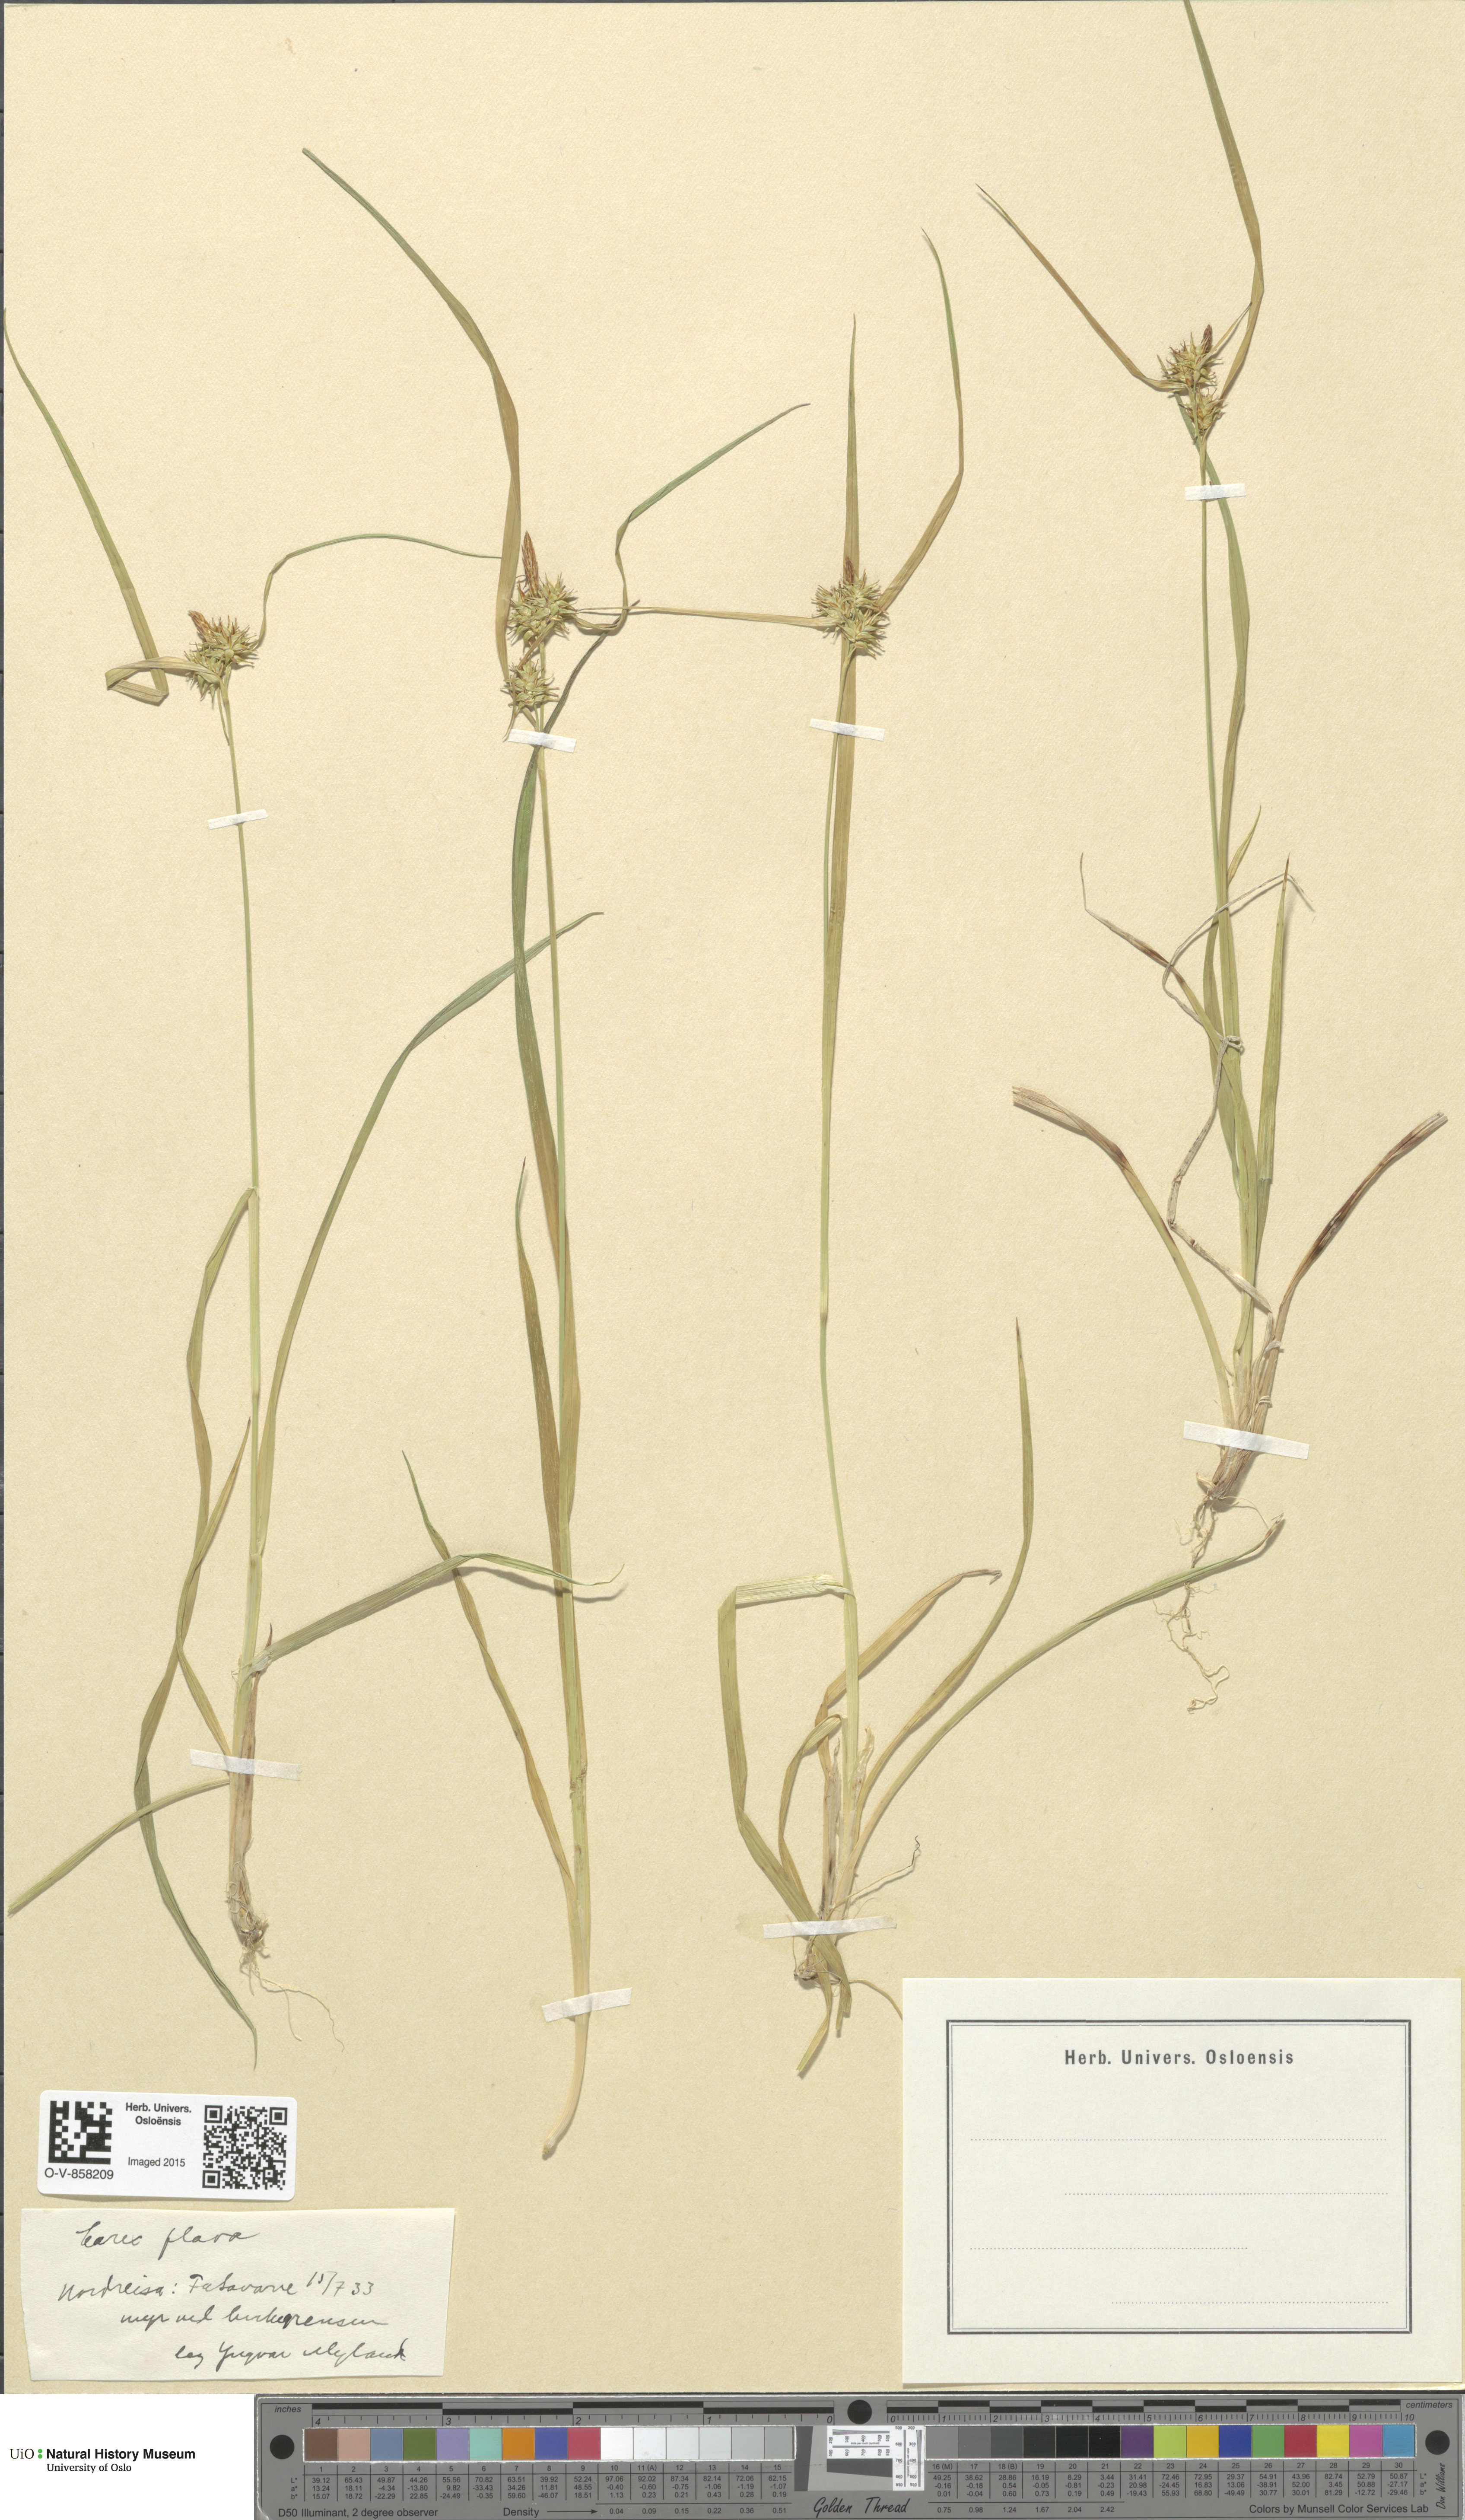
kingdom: Plantae
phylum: Tracheophyta
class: Liliopsida
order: Poales
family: Cyperaceae
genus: Carex
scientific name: Carex flava
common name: Large yellow-sedge
